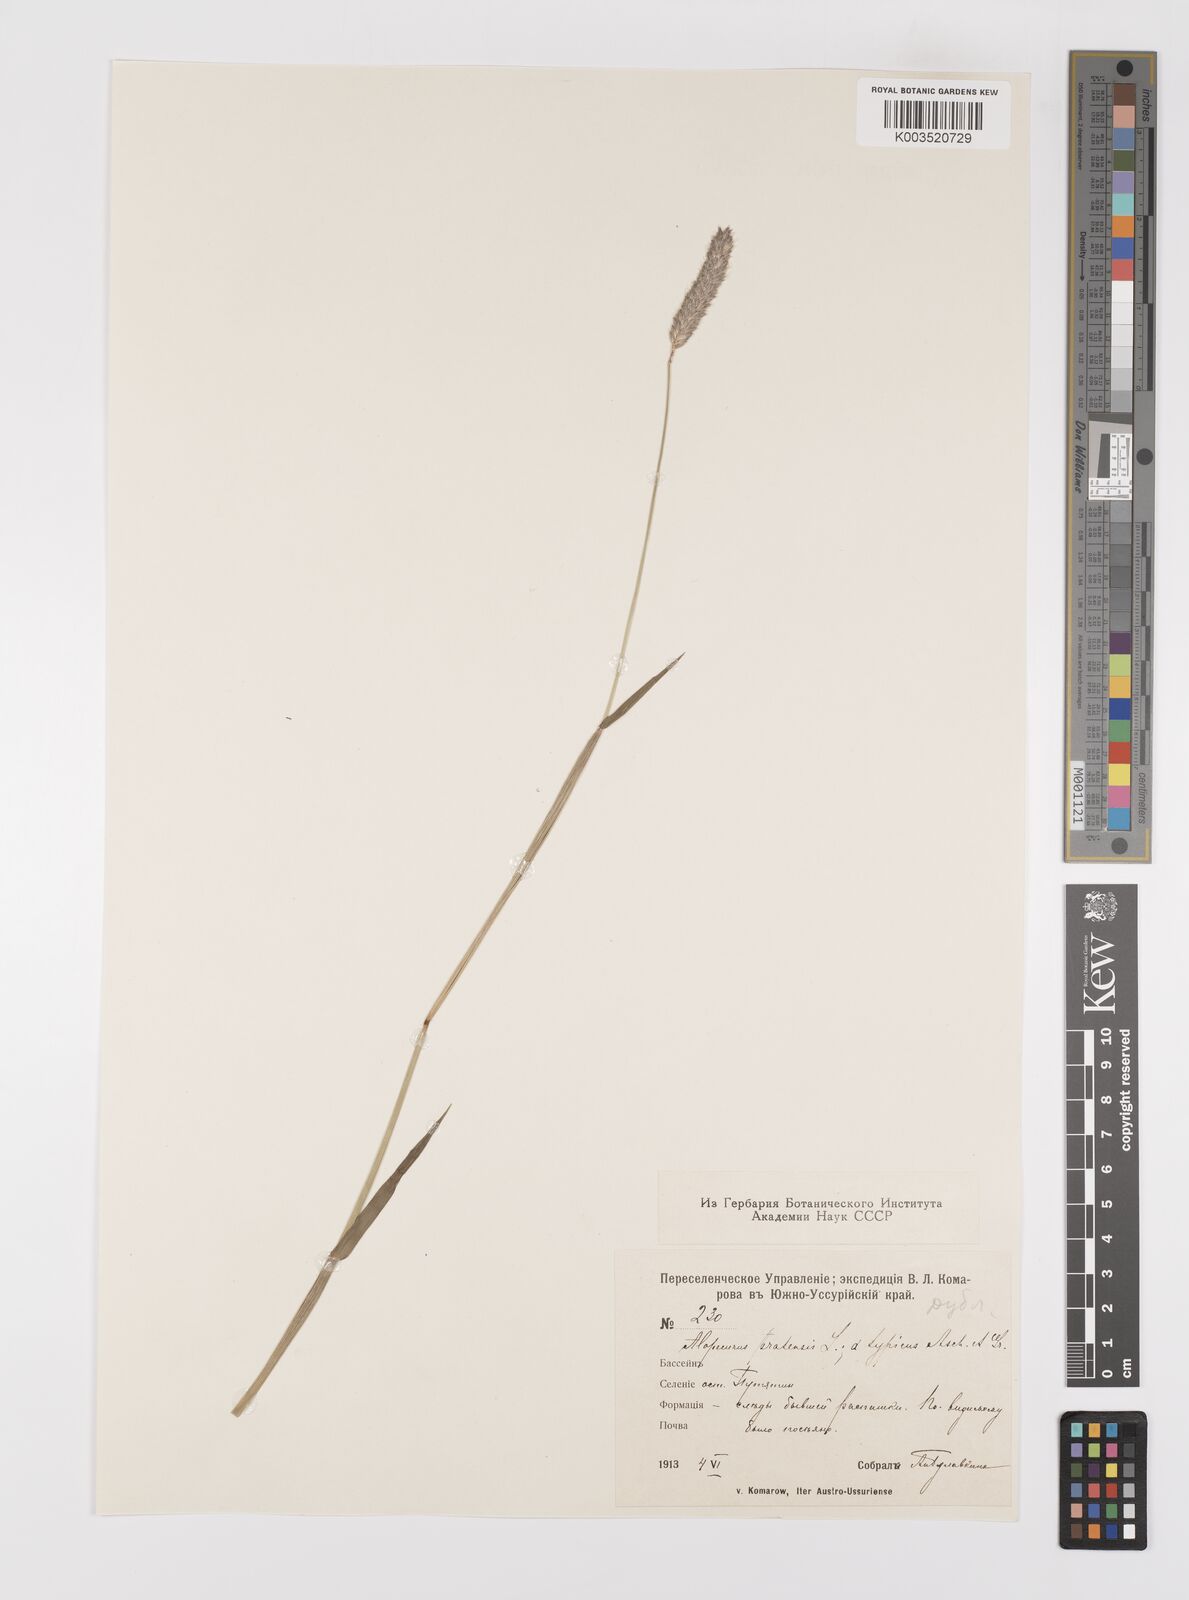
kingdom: Plantae
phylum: Tracheophyta
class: Liliopsida
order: Poales
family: Poaceae
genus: Alopecurus
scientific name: Alopecurus pratensis
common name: Meadow foxtail
